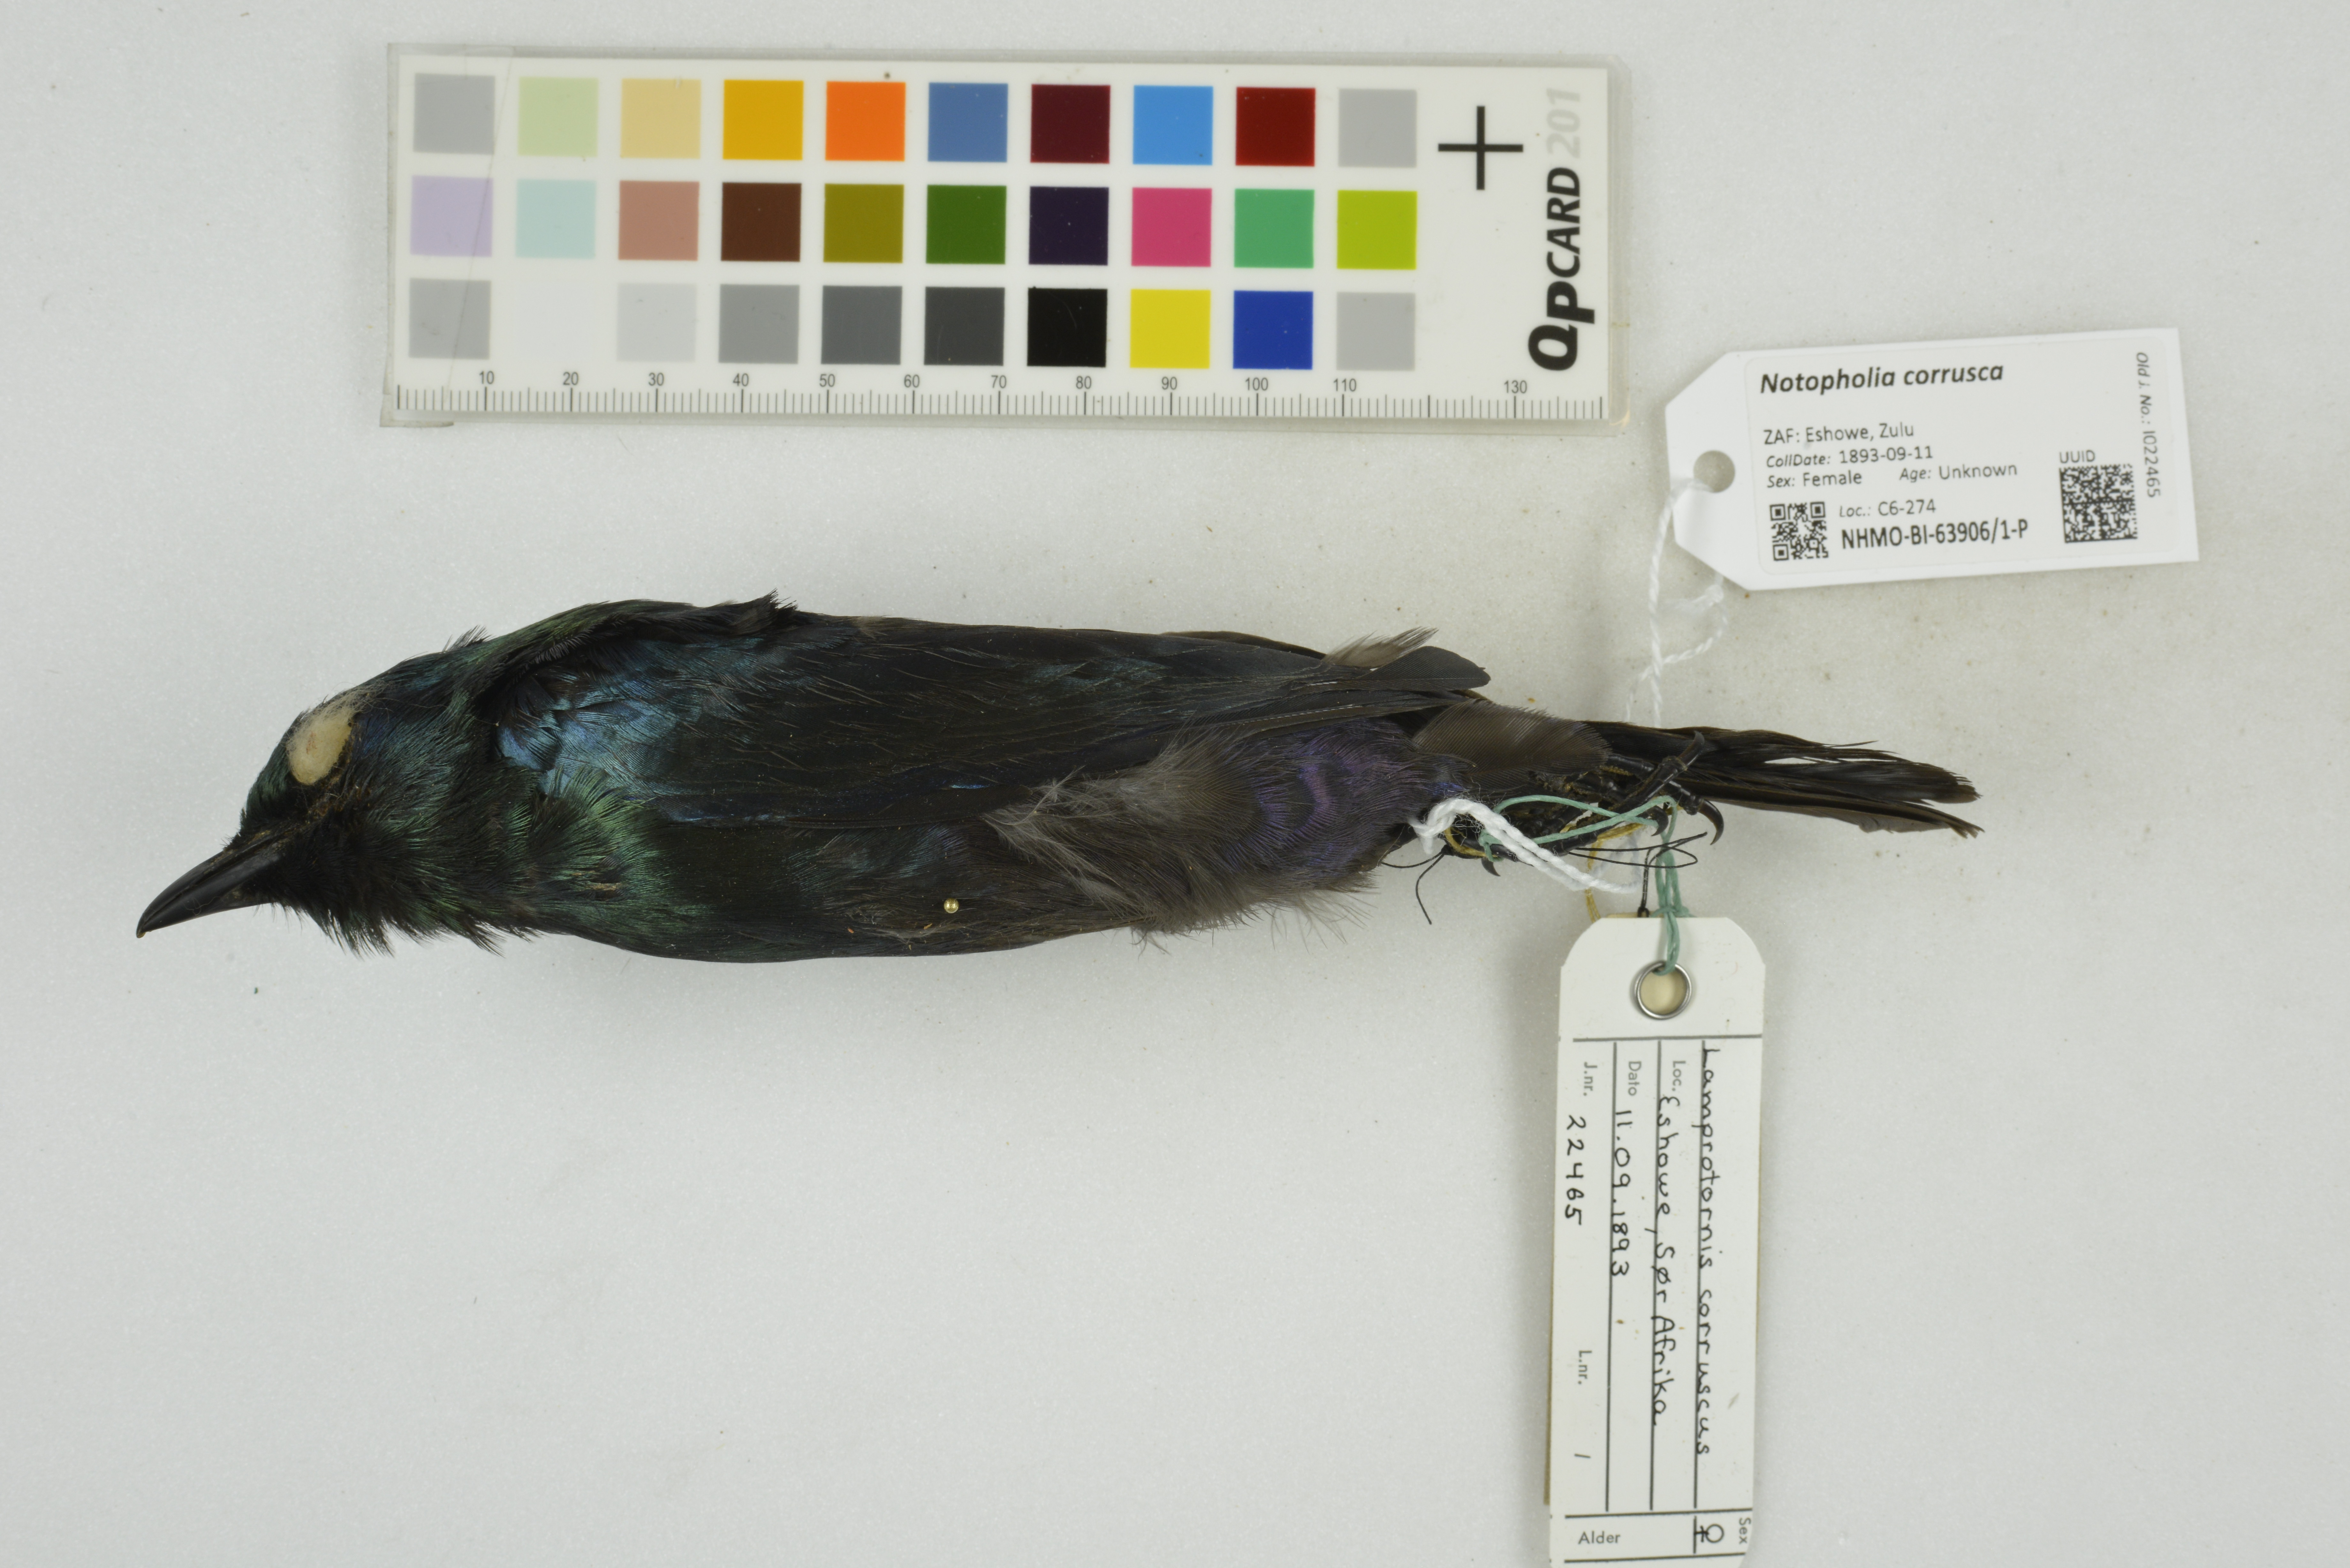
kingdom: Animalia
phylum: Chordata
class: Aves
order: Passeriformes
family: Sturnidae
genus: Notopholia
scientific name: Notopholia corrusca
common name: Black-bellied starling
